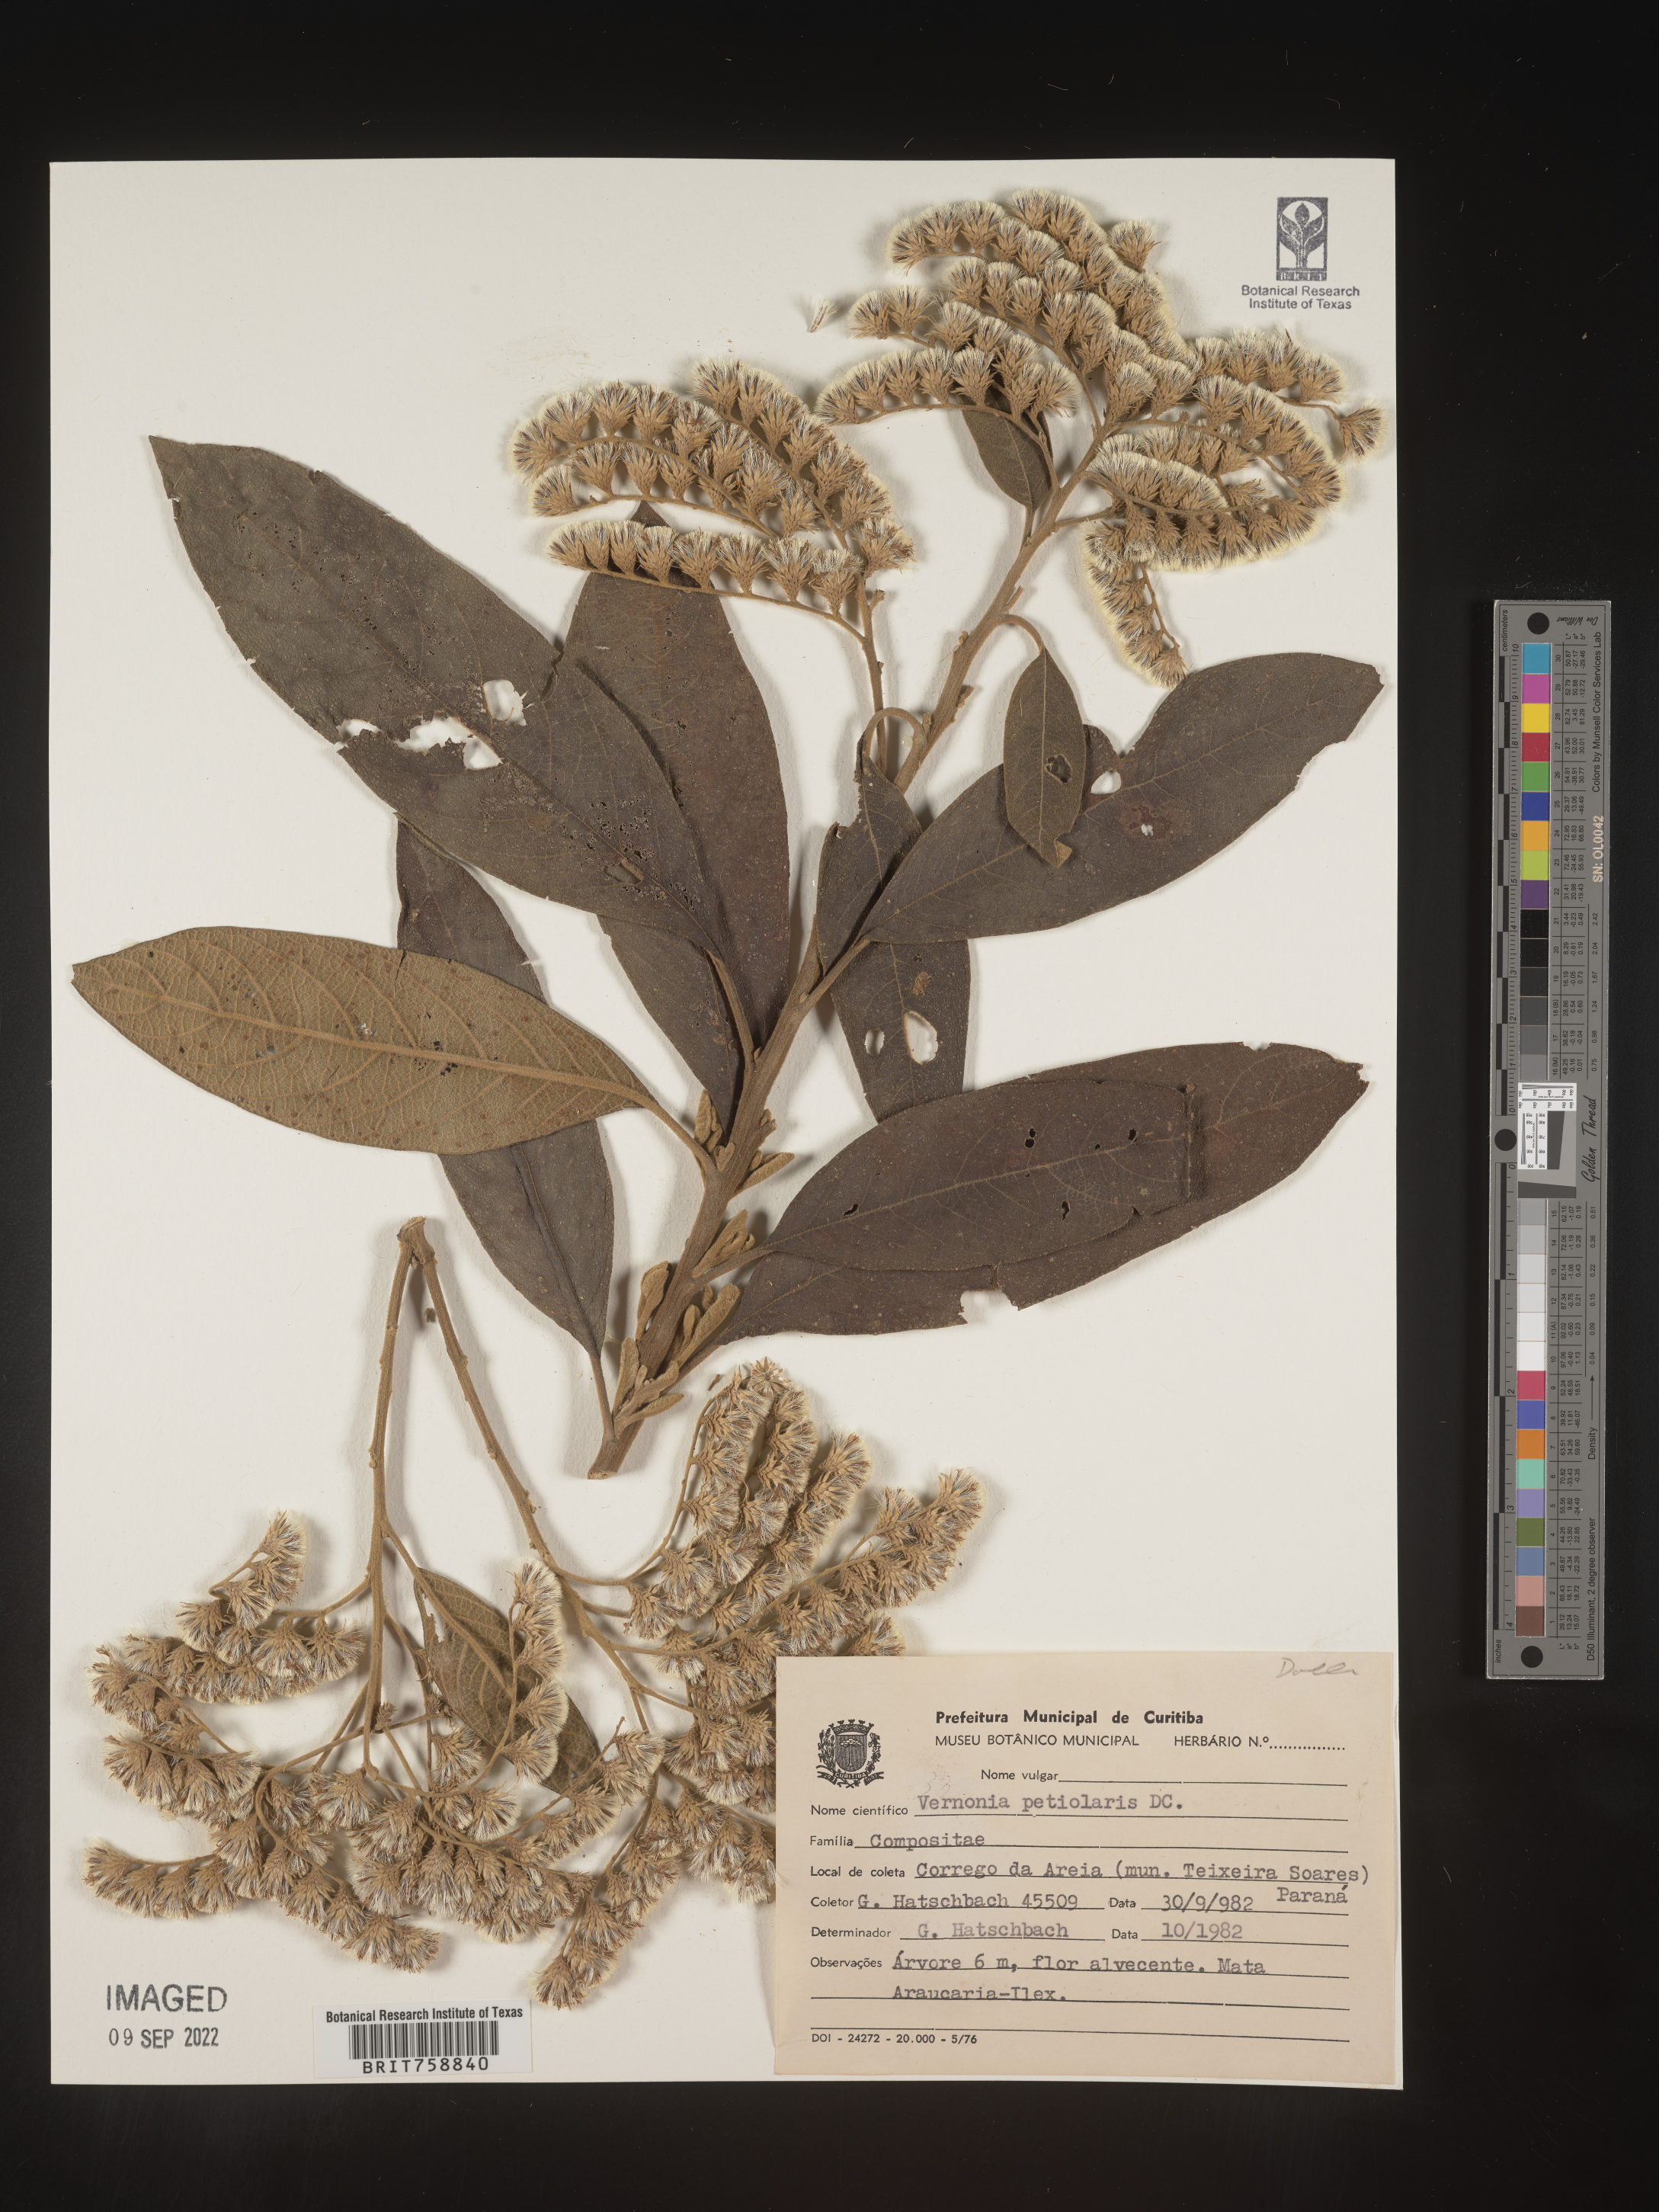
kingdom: Plantae
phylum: Tracheophyta
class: Magnoliopsida
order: Asterales
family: Asteraceae
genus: Vernonia
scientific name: Vernonia
